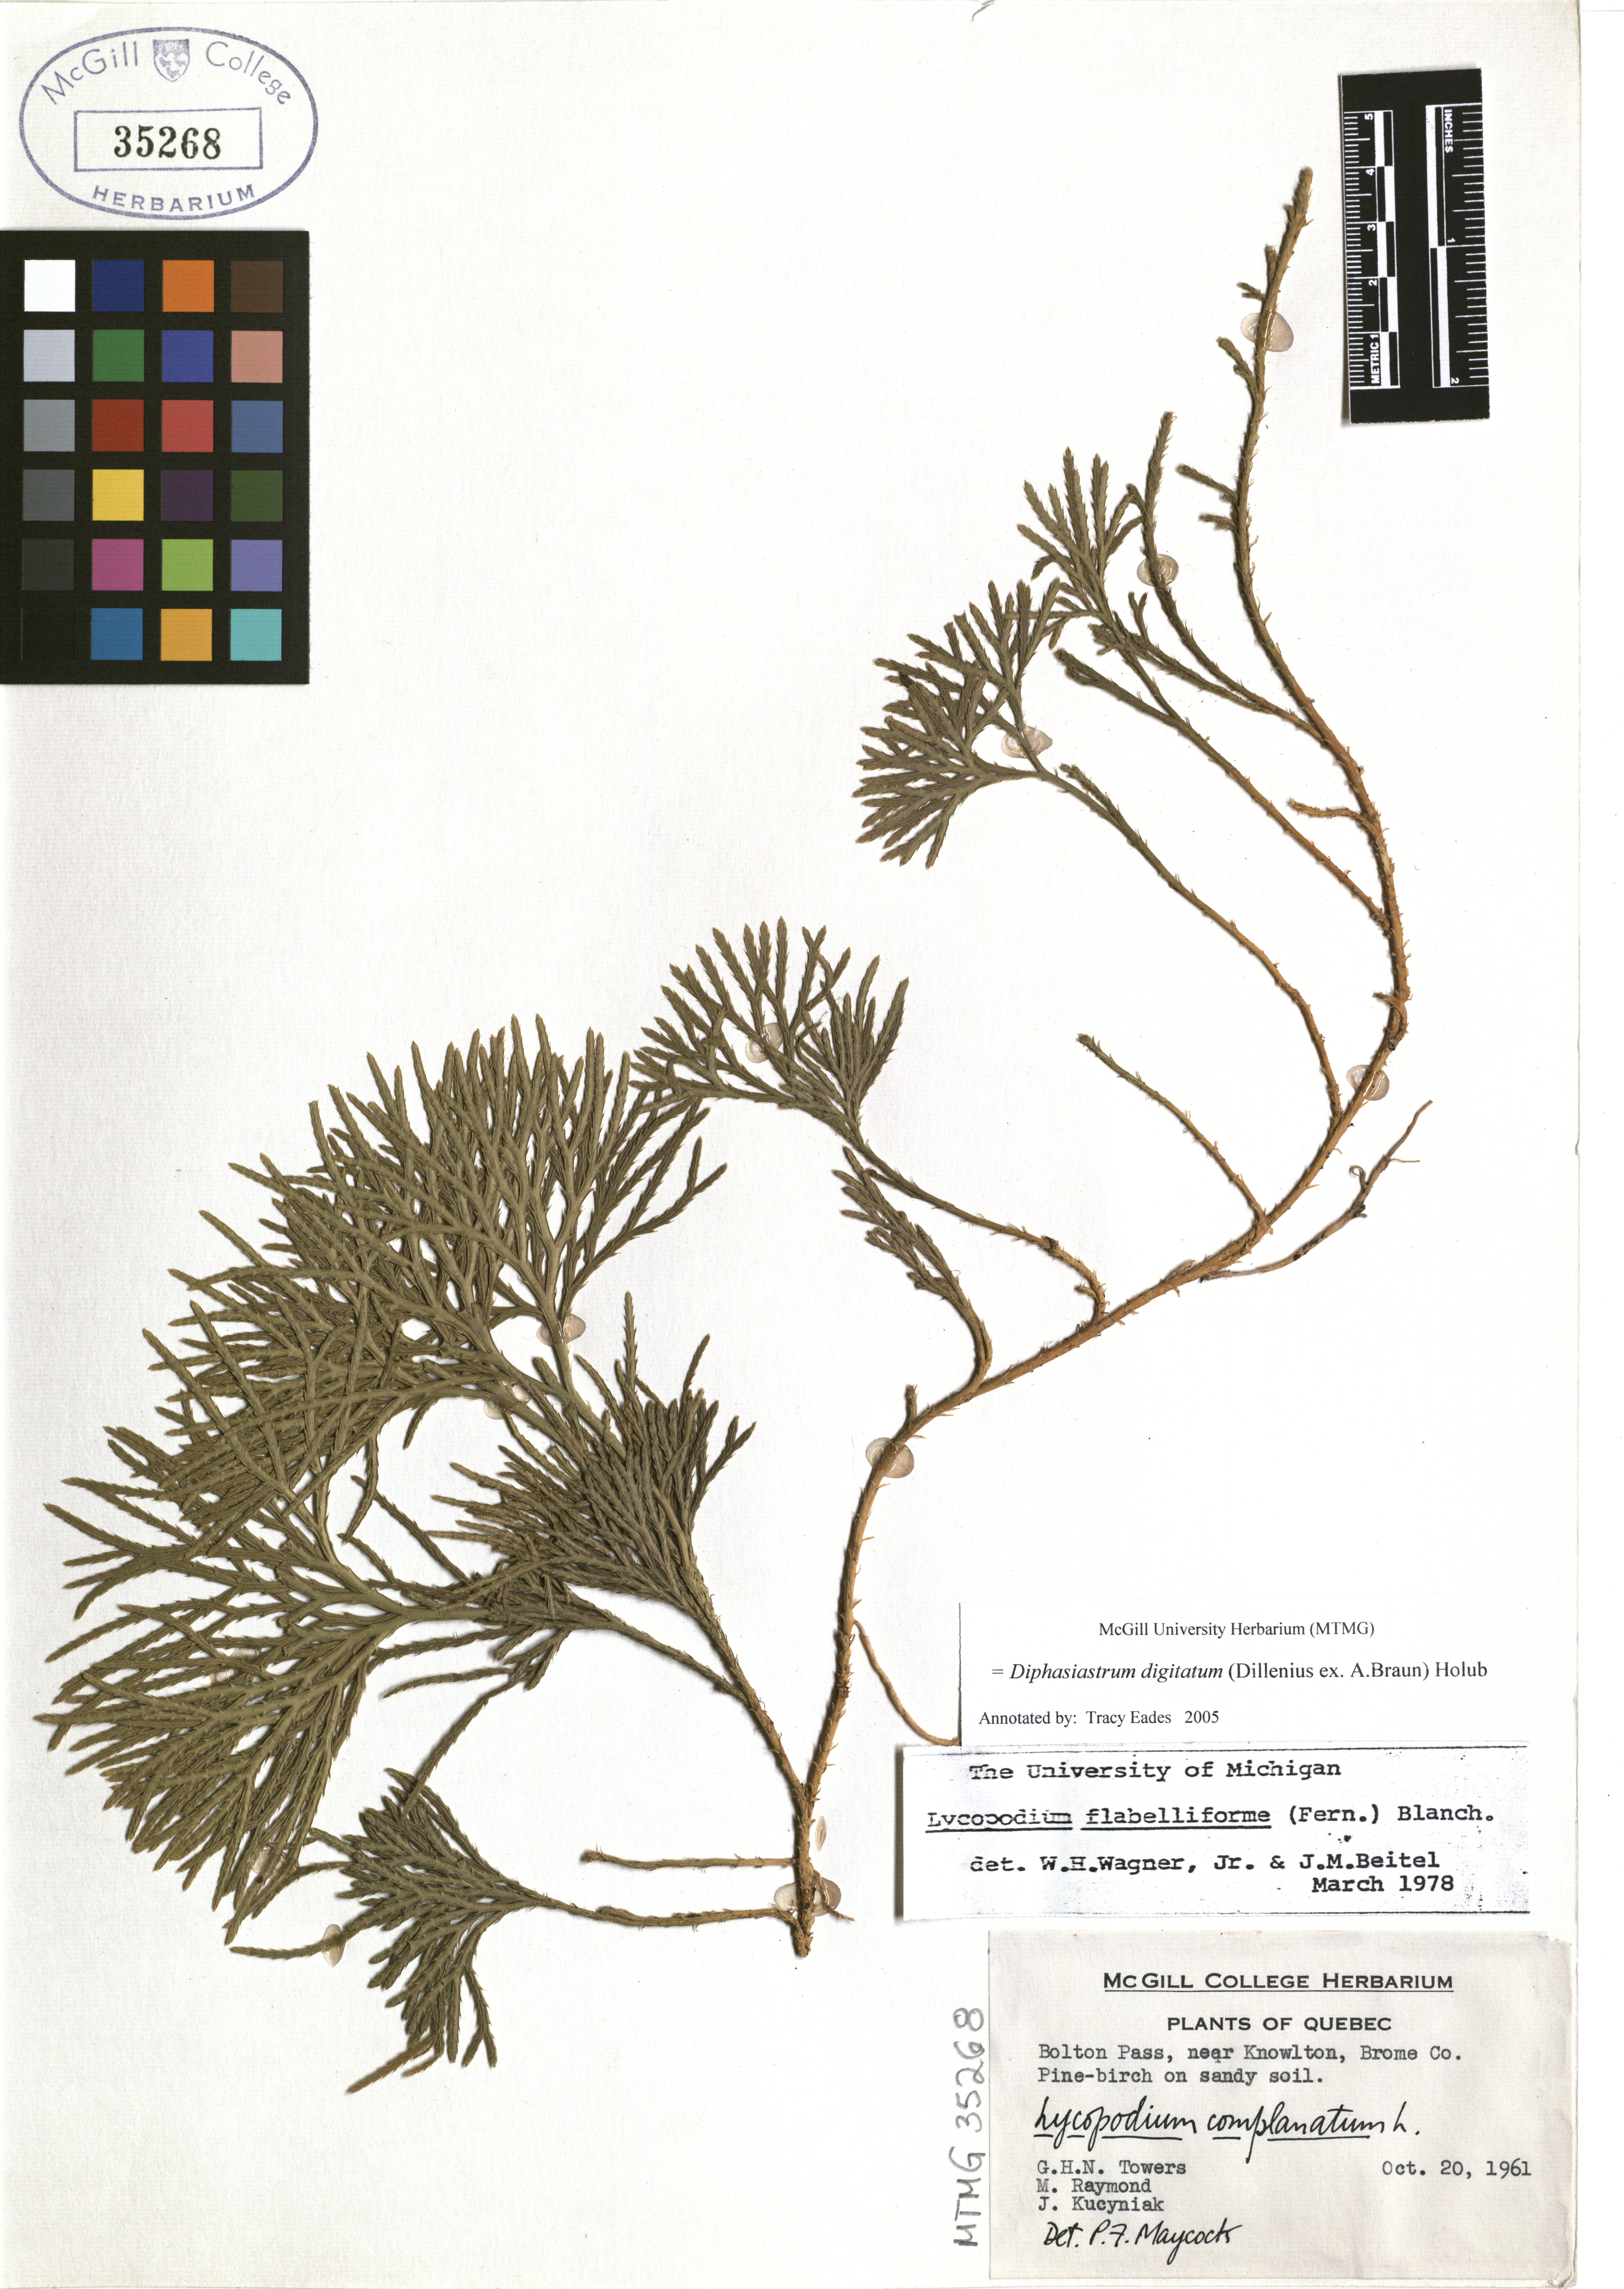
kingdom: Plantae
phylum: Tracheophyta
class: Lycopodiopsida
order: Lycopodiales
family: Lycopodiaceae
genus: Diphasiastrum
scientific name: Diphasiastrum digitatum
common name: Southern running-pine
